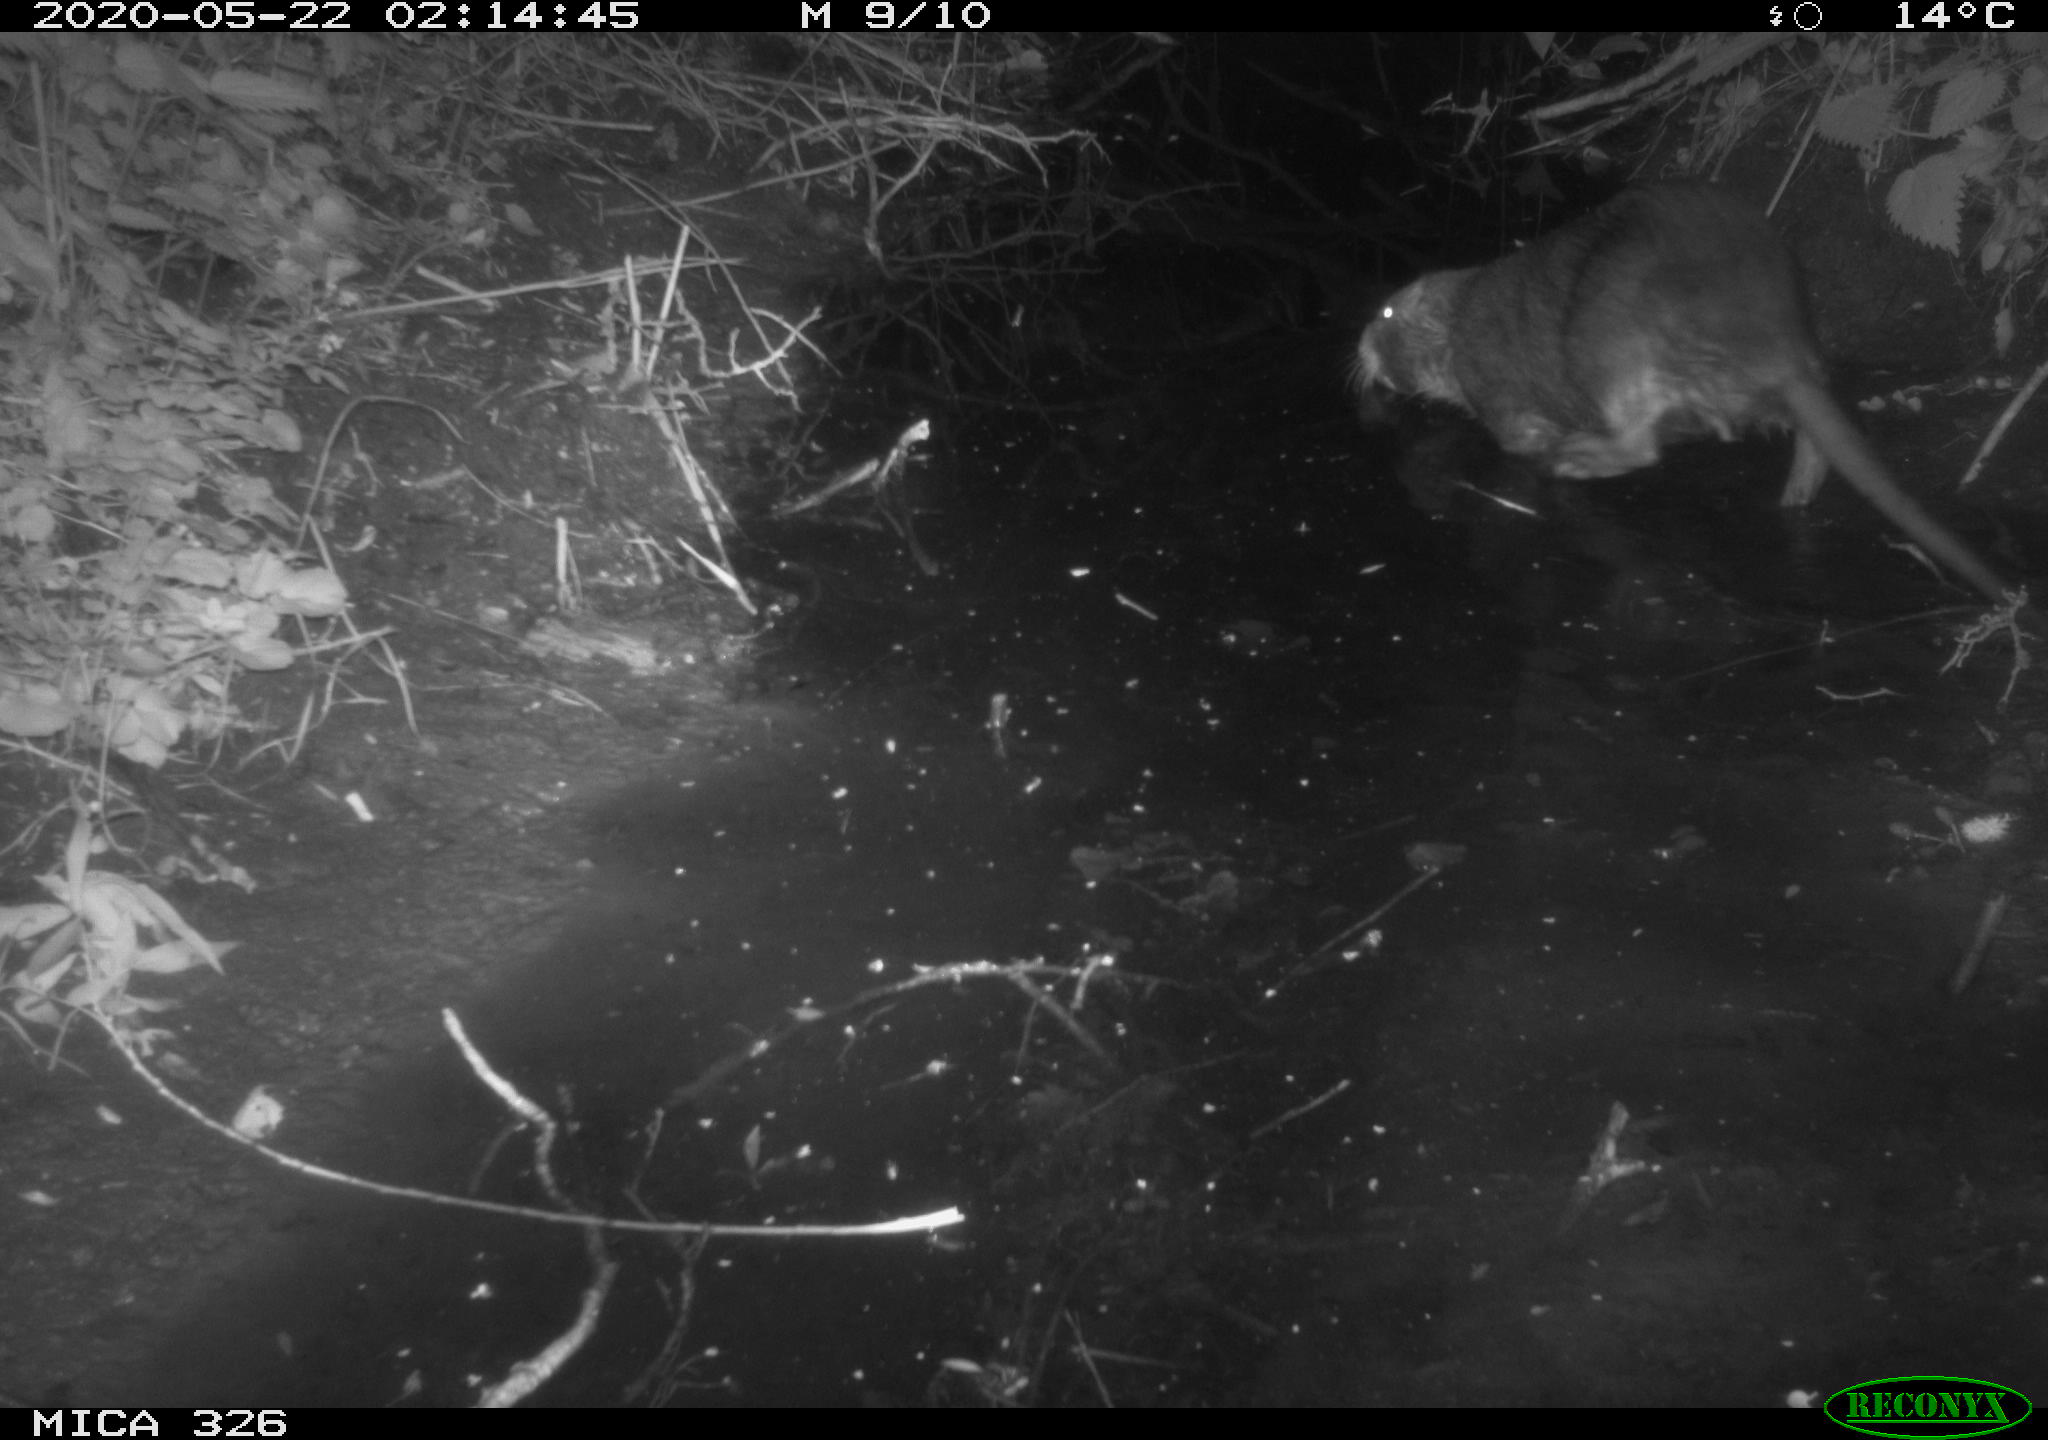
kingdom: Animalia
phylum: Chordata
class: Mammalia
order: Rodentia
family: Myocastoridae
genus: Myocastor
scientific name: Myocastor coypus
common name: Coypu
